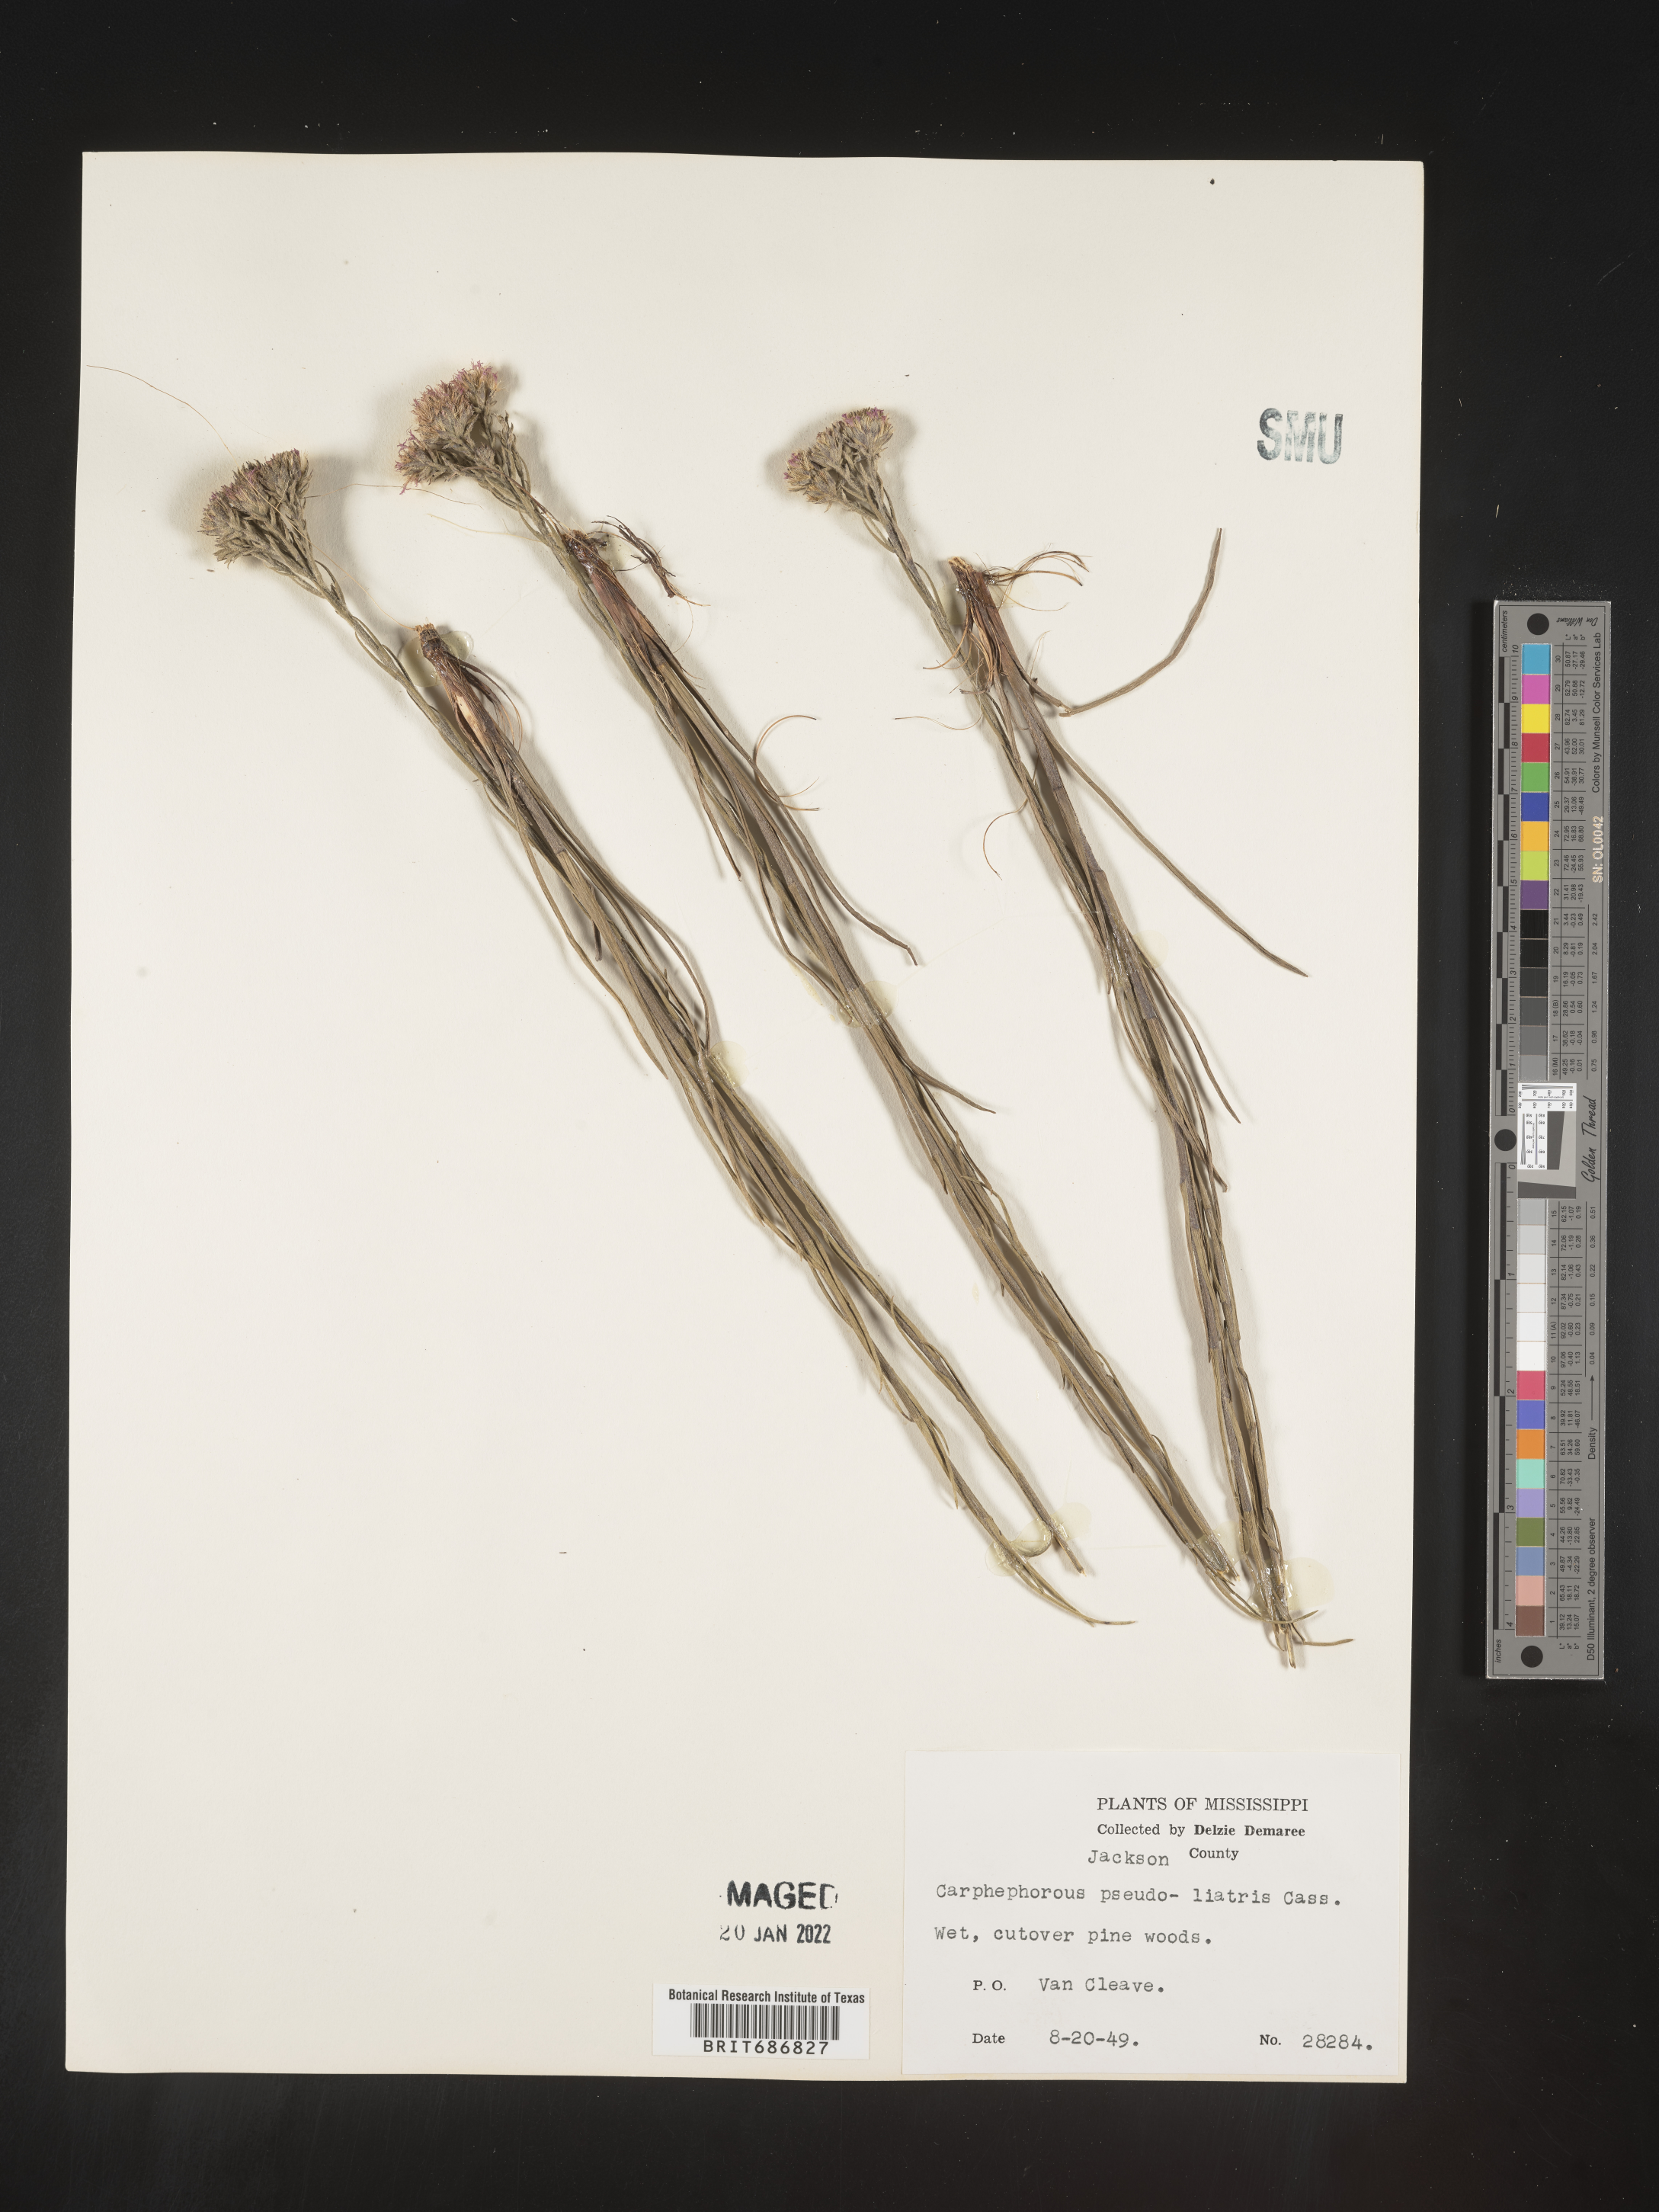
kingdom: Plantae
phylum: Tracheophyta
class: Magnoliopsida
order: Asterales
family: Asteraceae
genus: Carphephorus
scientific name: Carphephorus pseudoliatris
